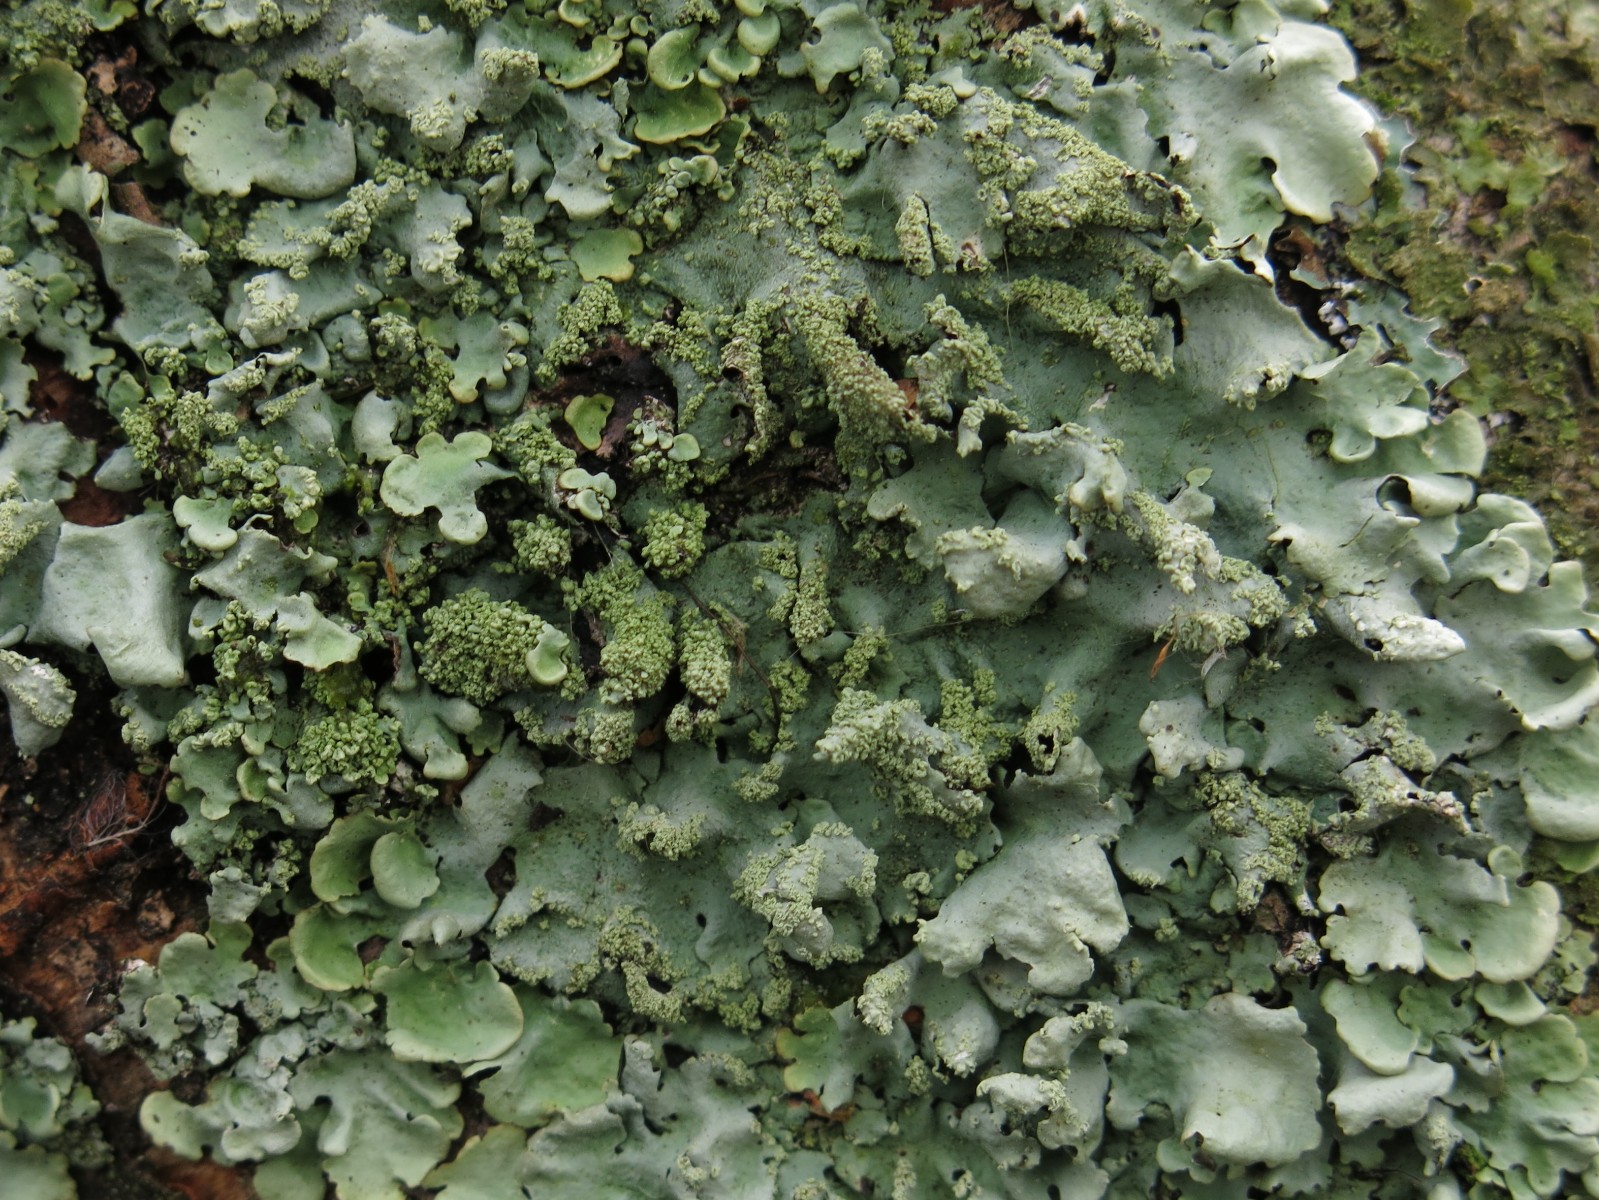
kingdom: Fungi
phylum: Ascomycota
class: Lecanoromycetes
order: Lecanorales
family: Parmeliaceae
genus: Hypotrachyna
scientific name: Hypotrachyna afrorevoluta
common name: kyst-skållav
